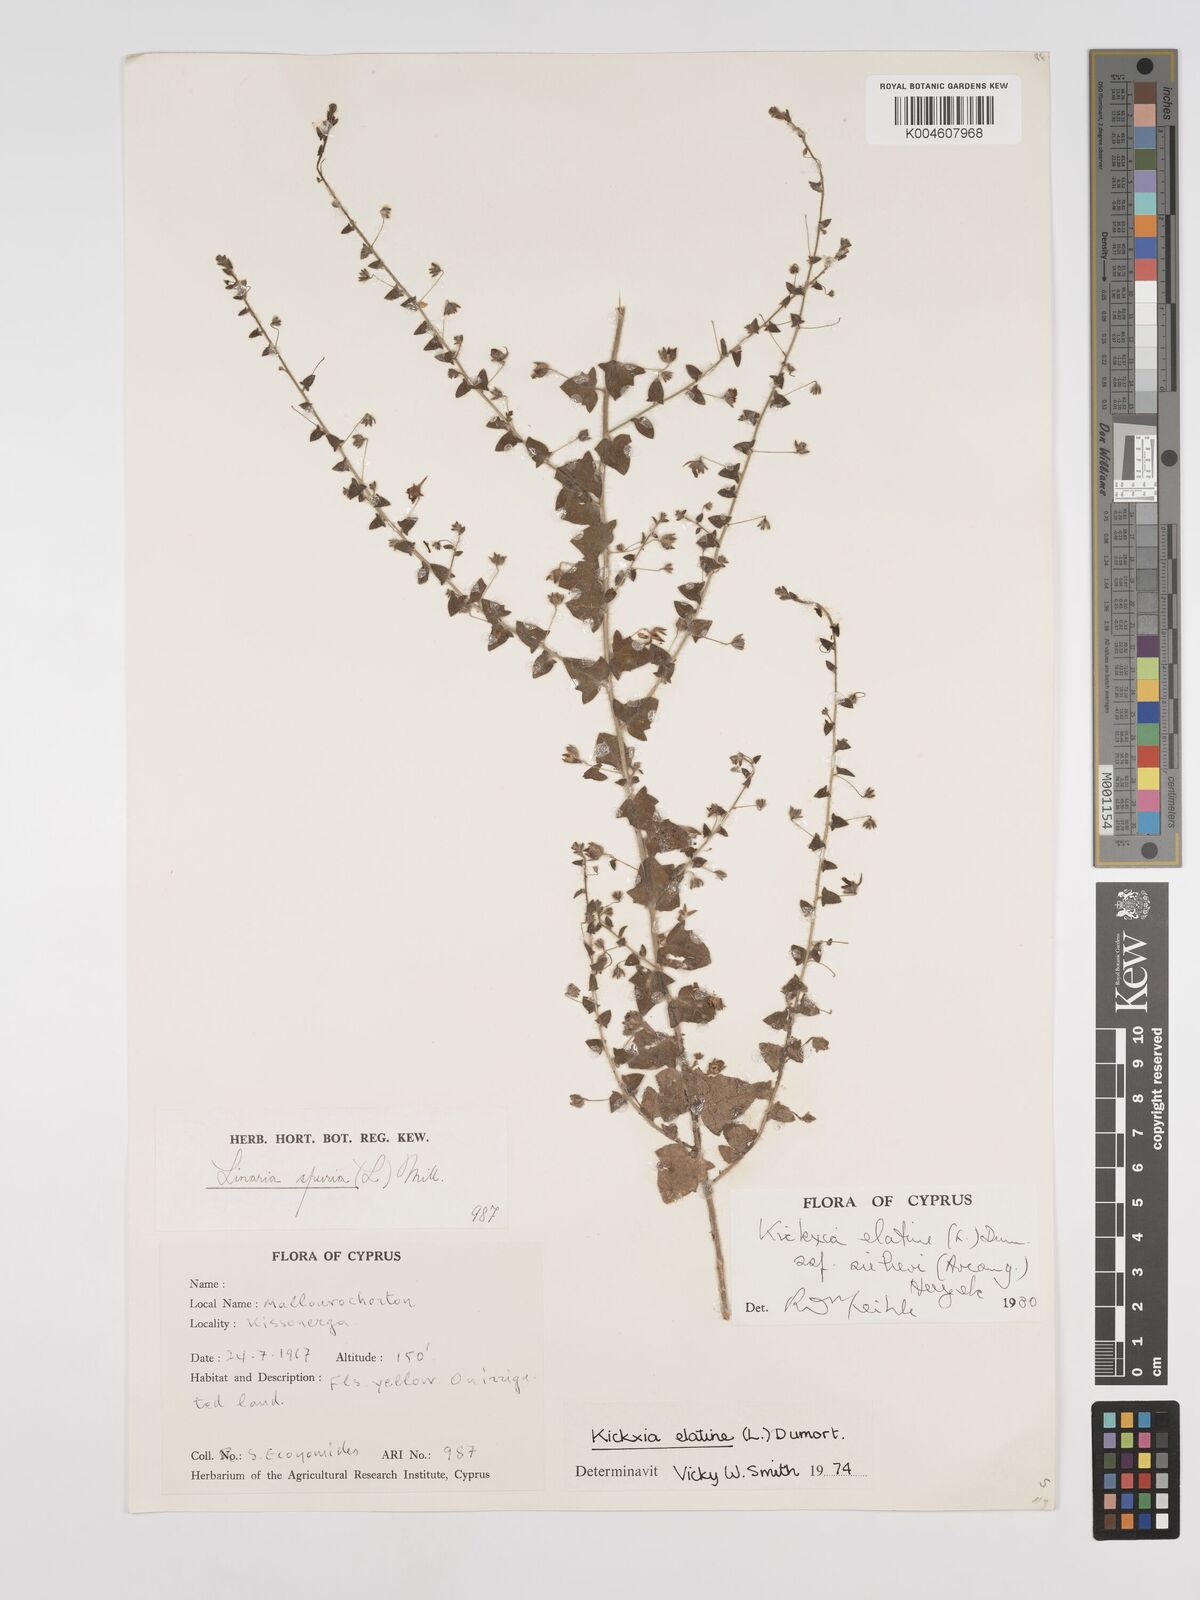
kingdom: Plantae
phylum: Tracheophyta
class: Magnoliopsida
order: Lamiales
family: Plantaginaceae
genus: Kickxia
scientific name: Kickxia elatine
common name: Sharp-leaved fluellen
